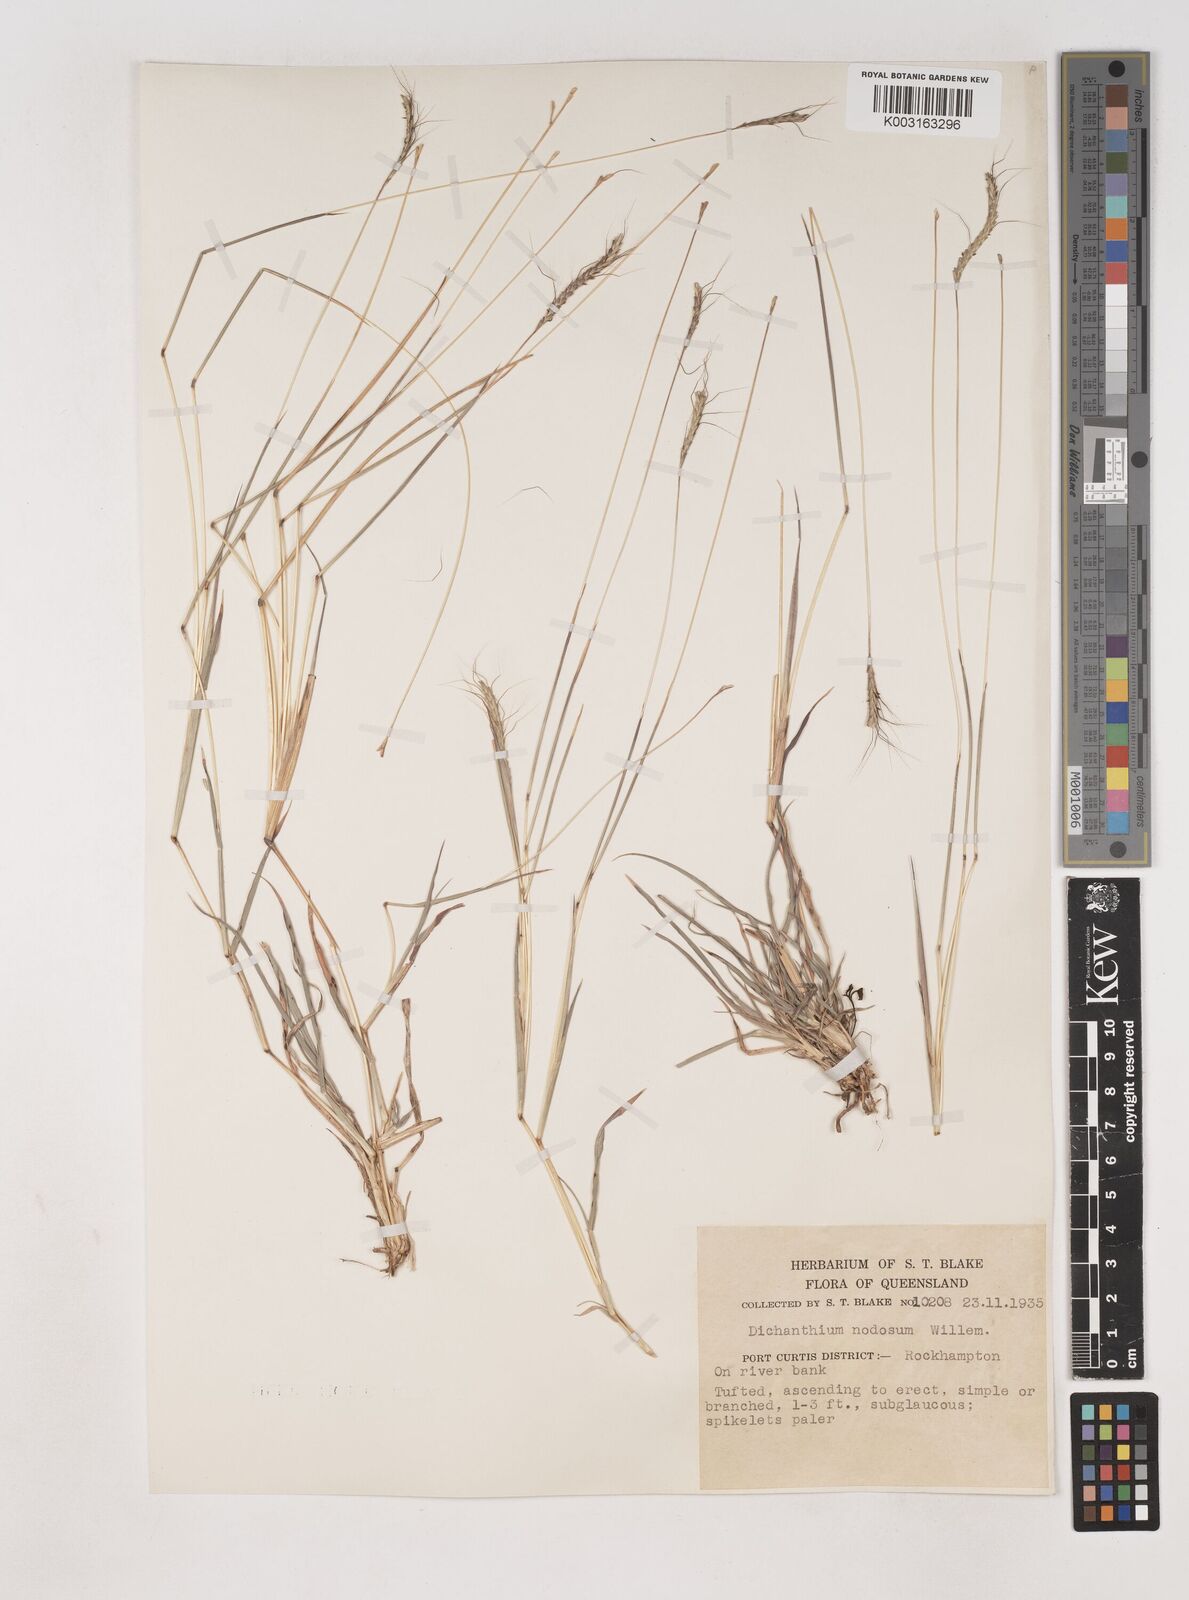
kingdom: Plantae
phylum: Tracheophyta
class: Liliopsida
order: Poales
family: Poaceae
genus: Dichanthium
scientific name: Dichanthium aristatum
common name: Angleton bluestem
